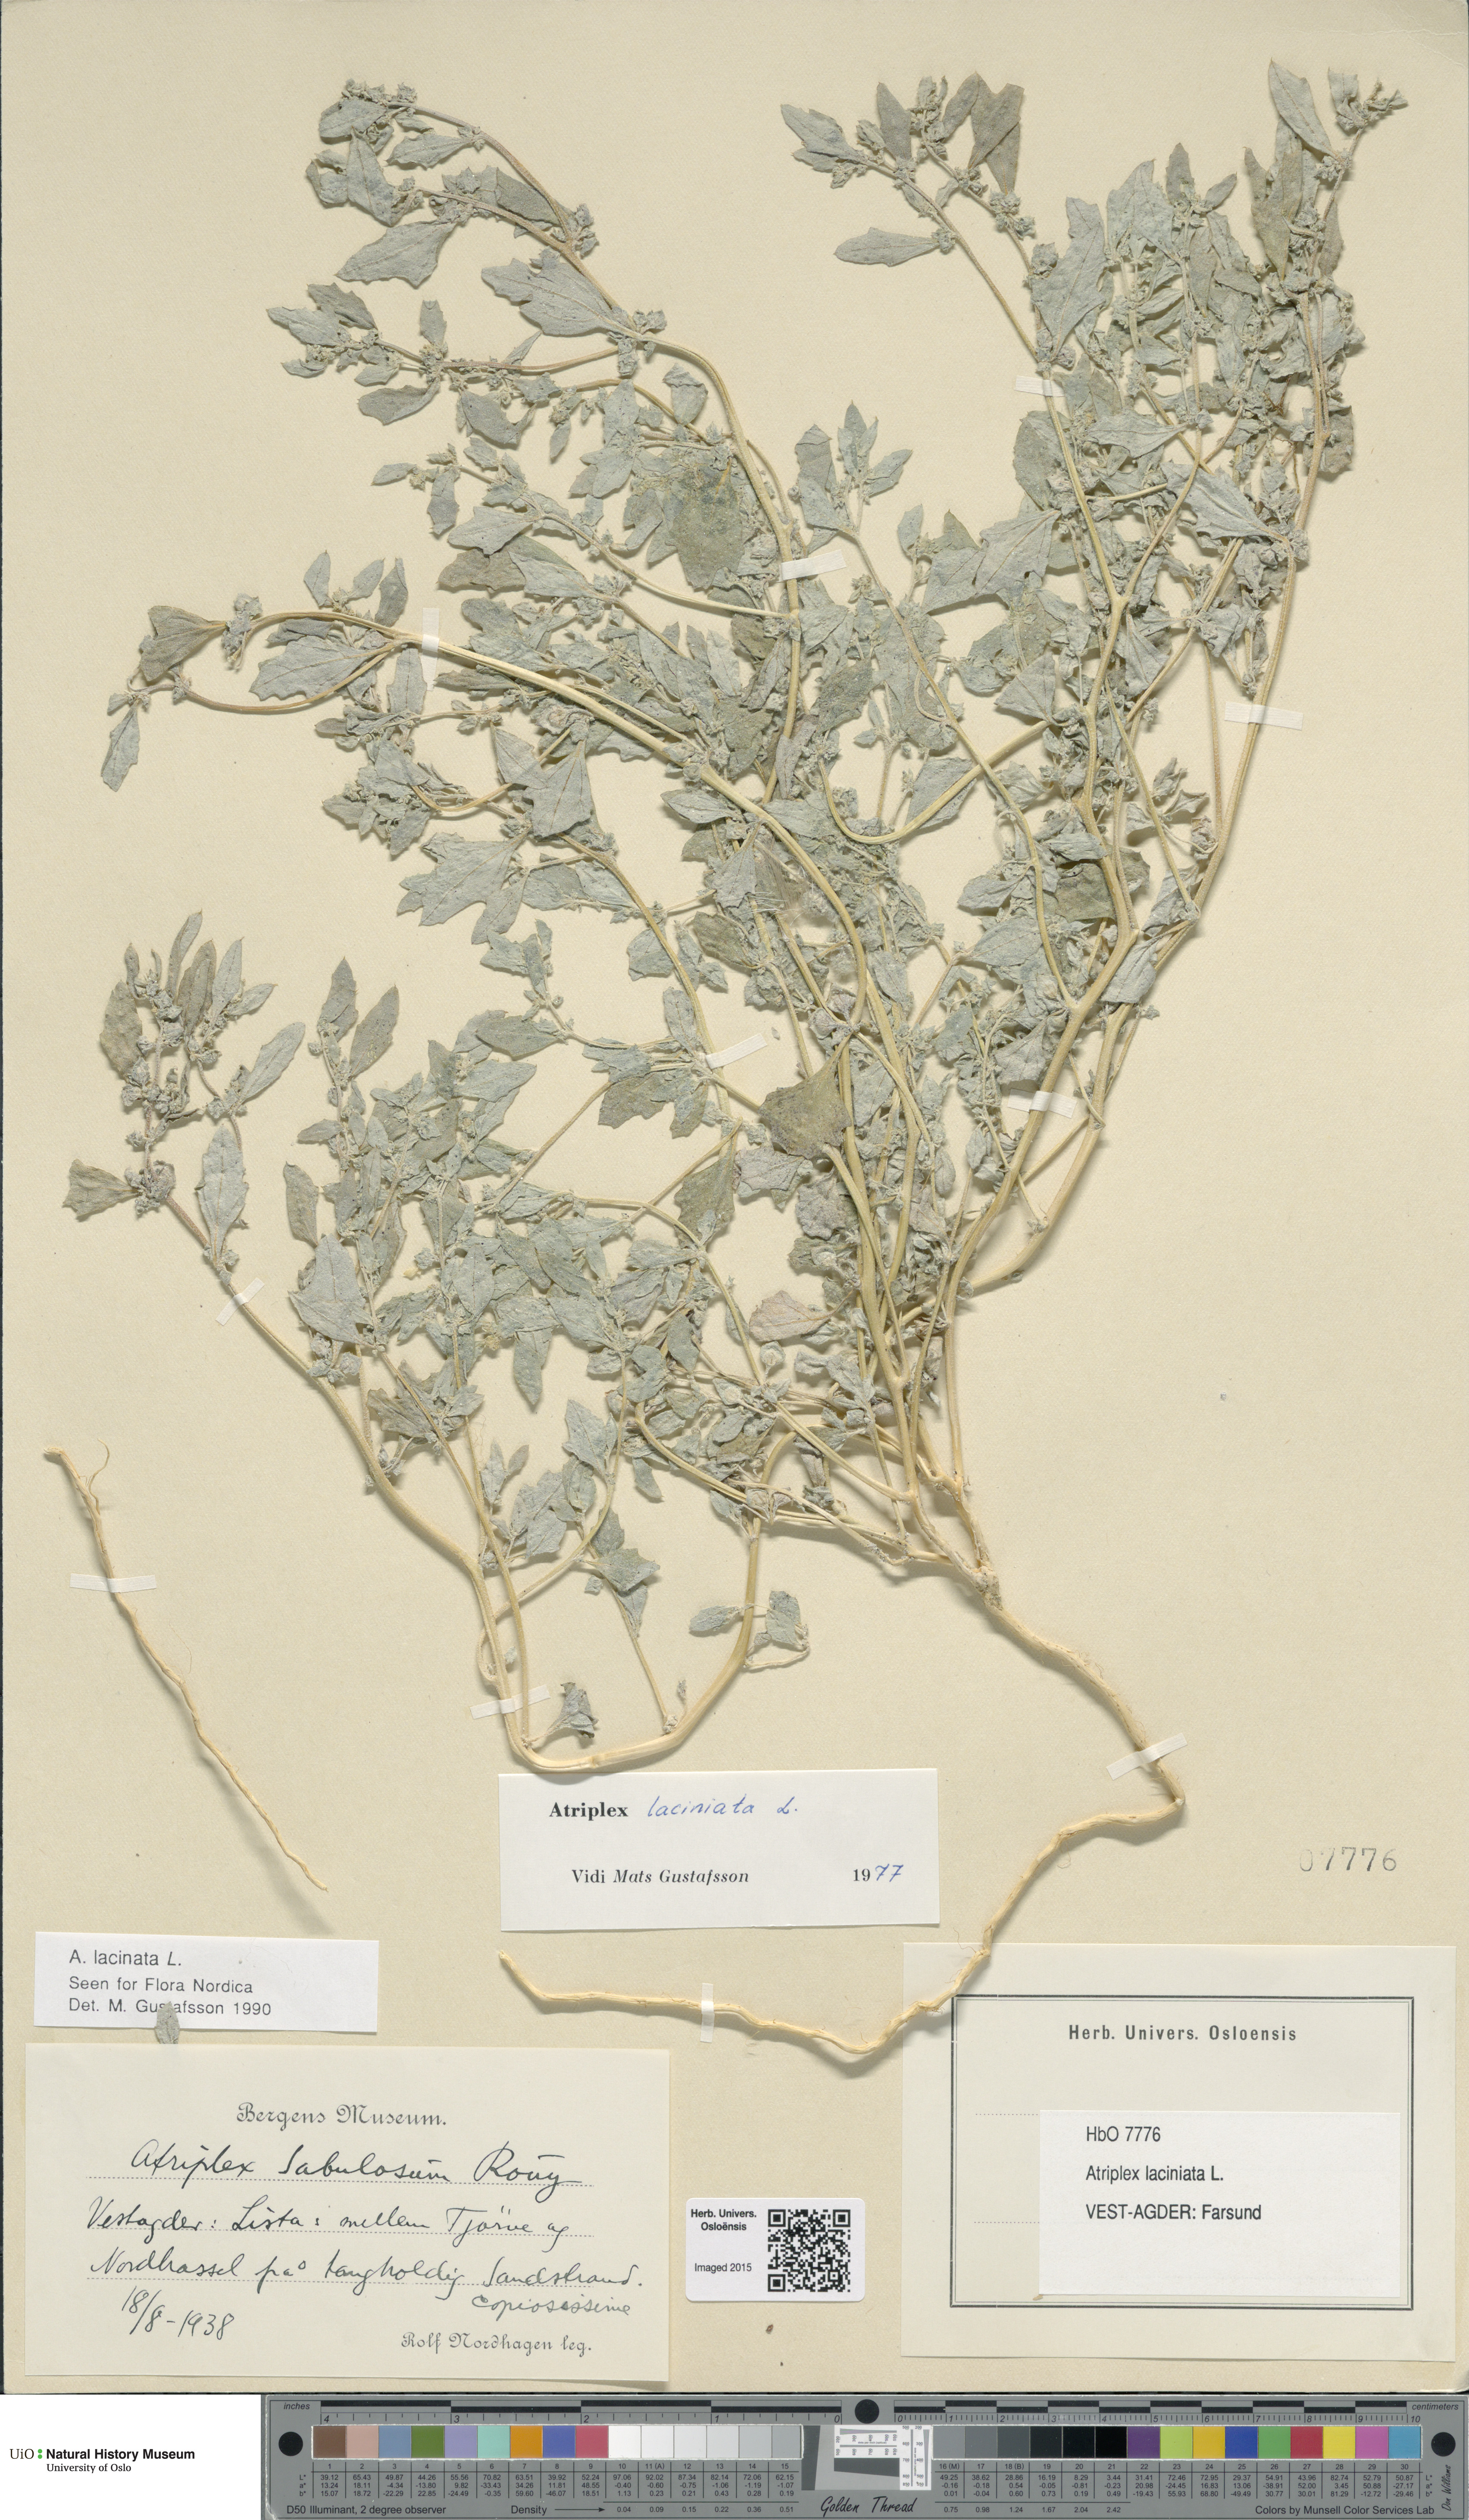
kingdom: Plantae
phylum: Tracheophyta
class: Magnoliopsida
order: Caryophyllales
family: Amaranthaceae
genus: Atriplex
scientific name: Atriplex laciniata
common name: Frosted orache
